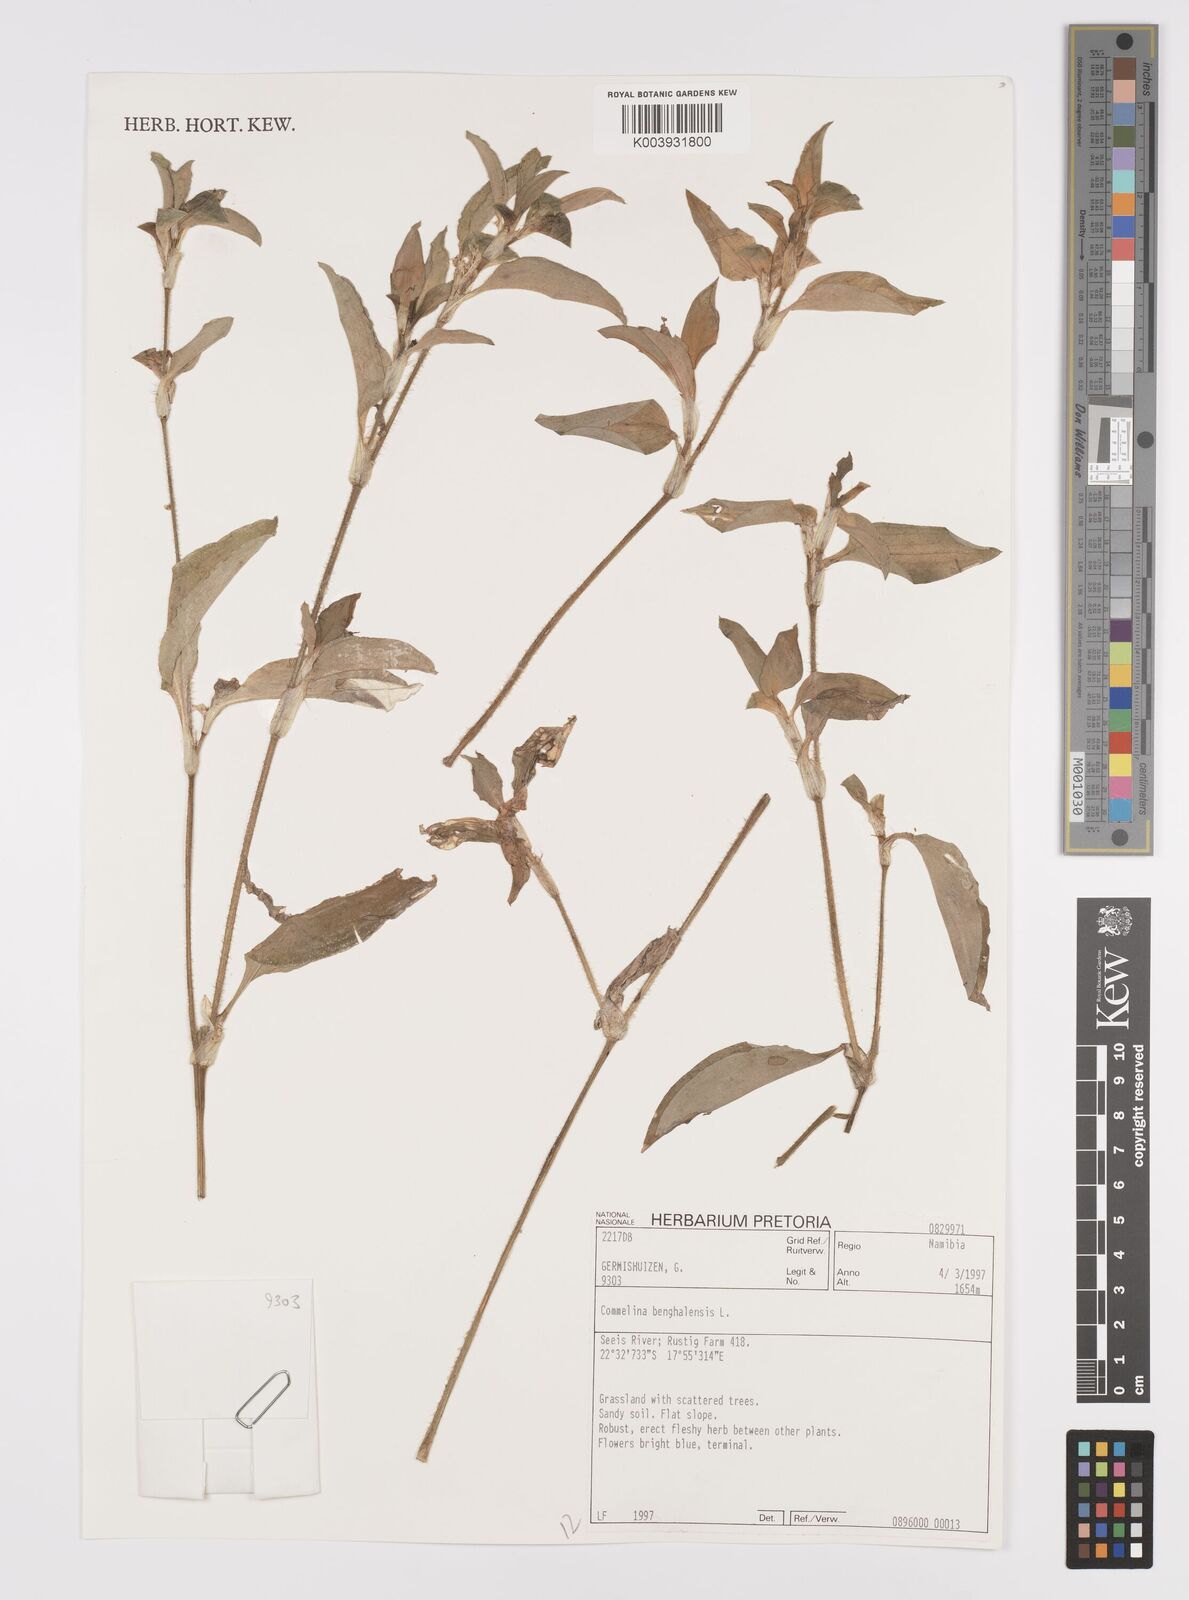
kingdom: Plantae
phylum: Tracheophyta
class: Liliopsida
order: Commelinales
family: Commelinaceae
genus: Commelina
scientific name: Commelina benghalensis
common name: Jio
